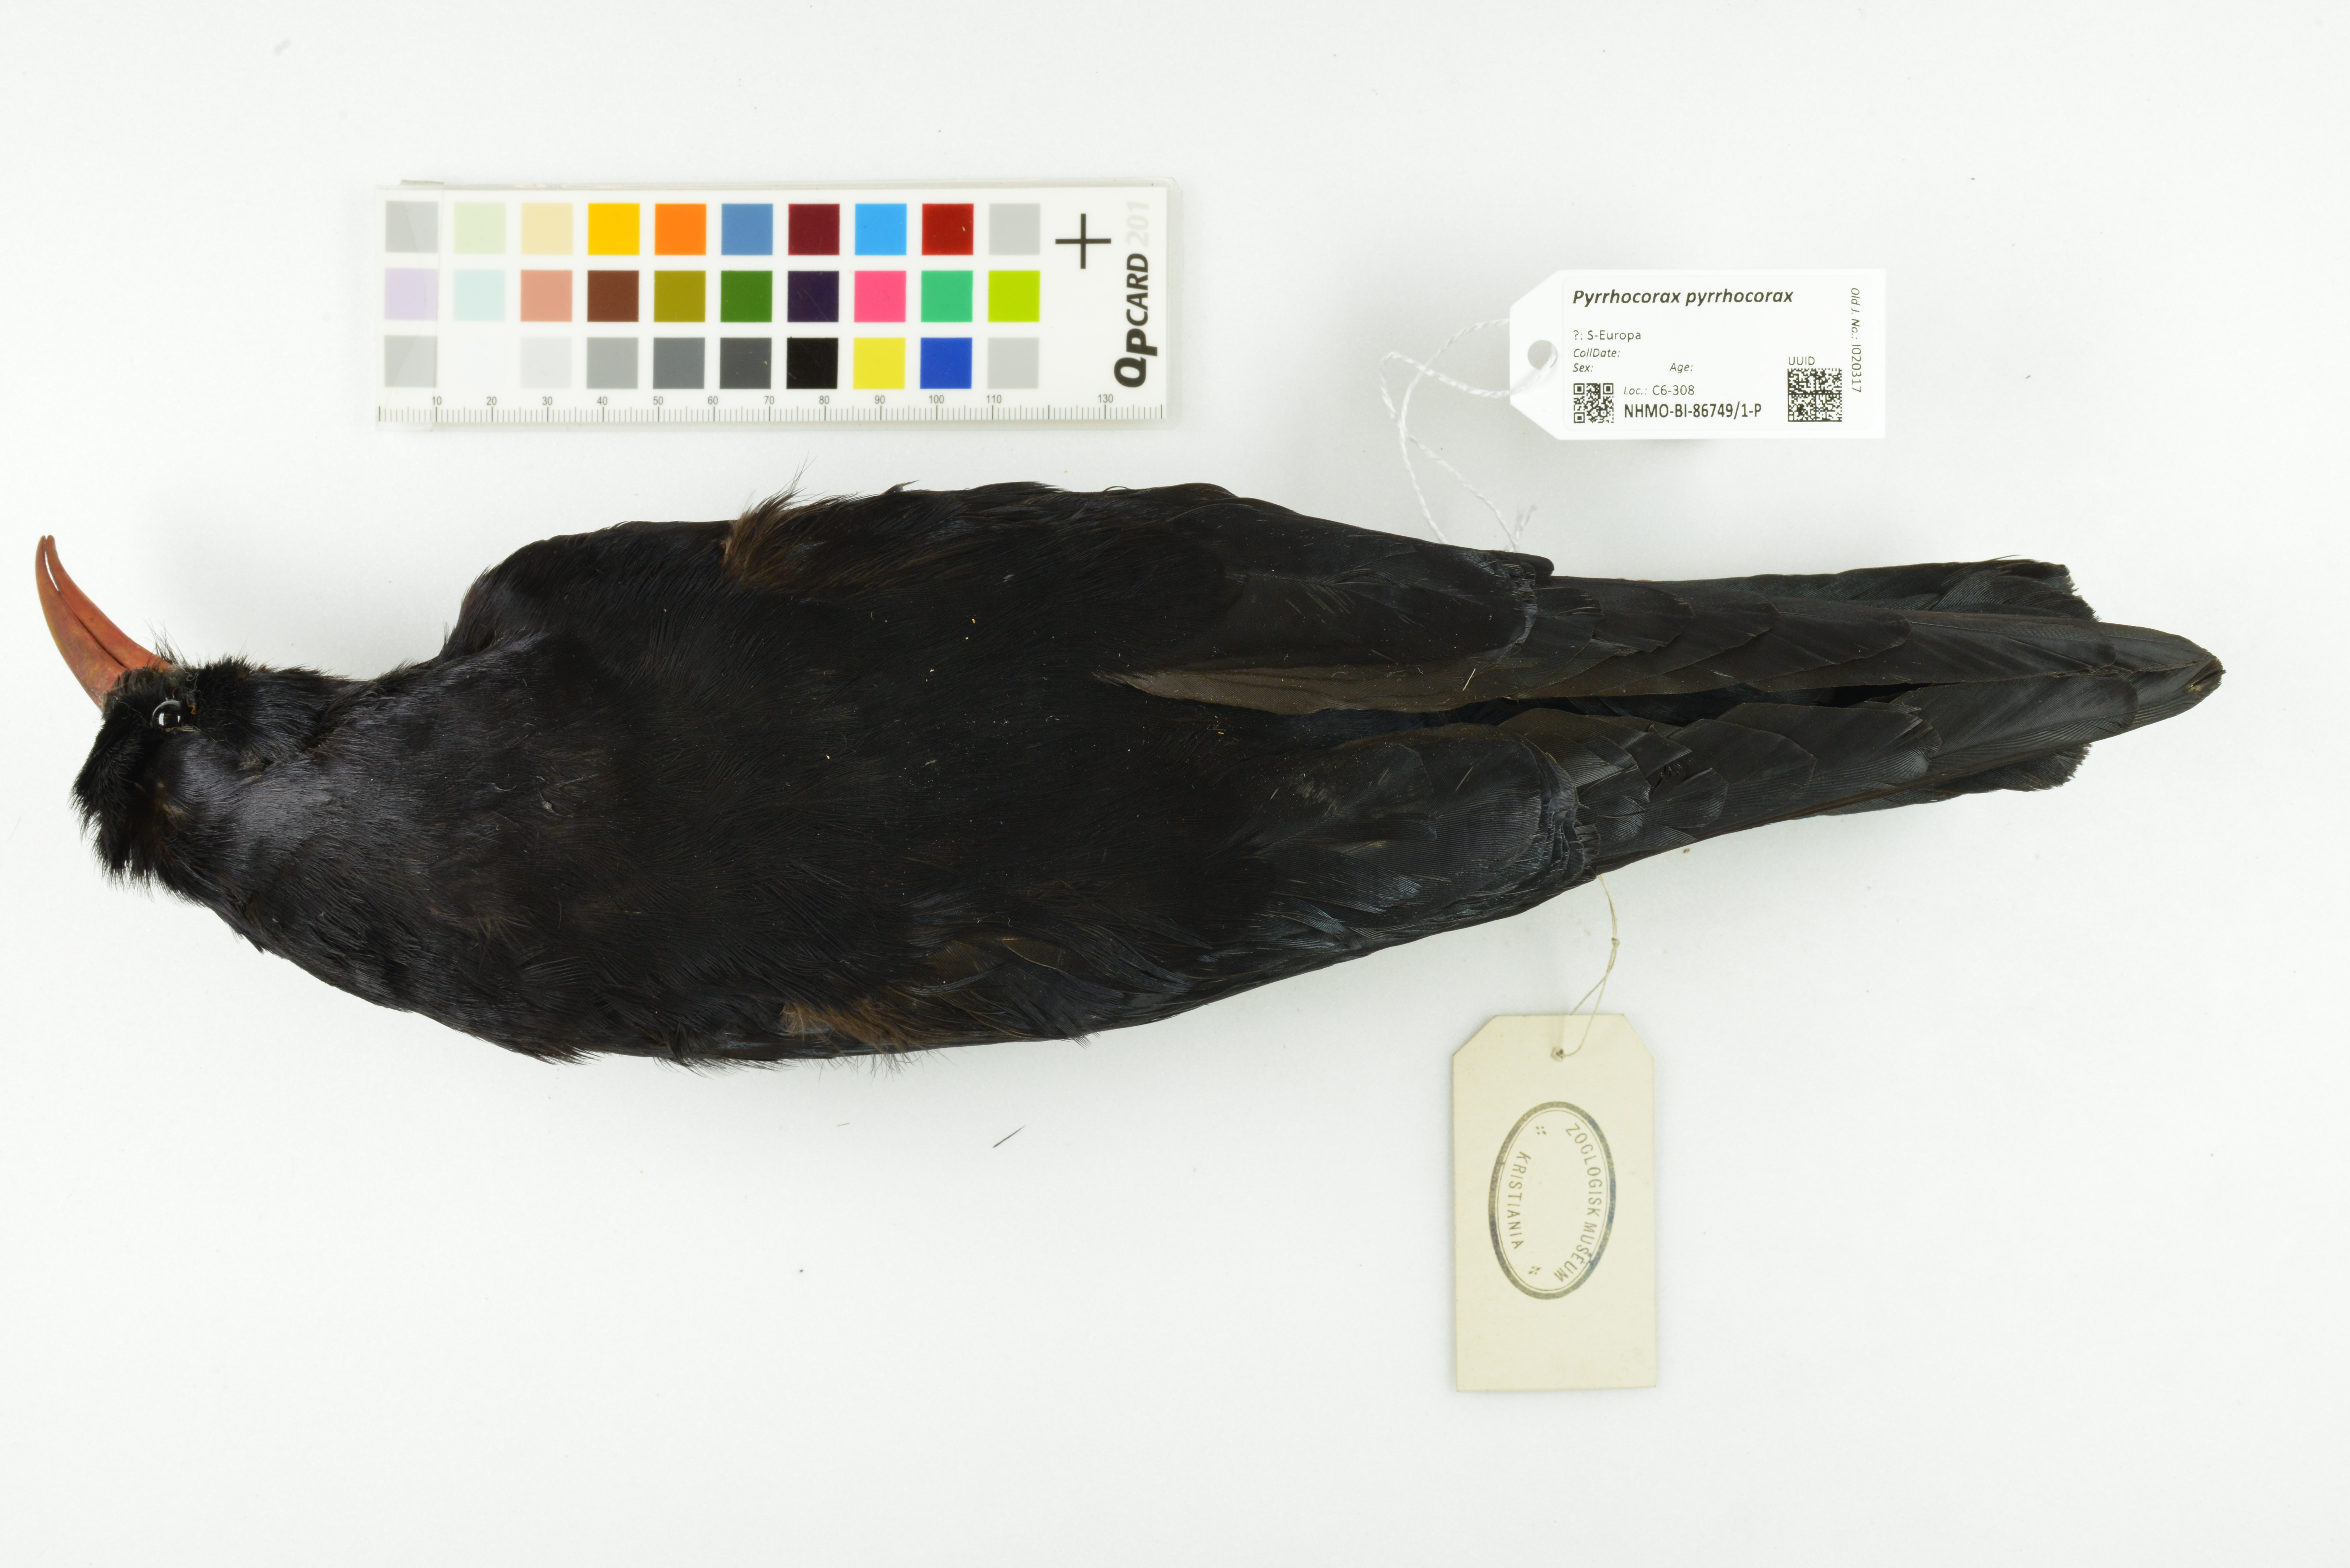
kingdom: Animalia
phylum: Chordata
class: Aves
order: Passeriformes
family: Corvidae
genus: Pyrrhocorax
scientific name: Pyrrhocorax pyrrhocorax
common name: Red-billed chough
